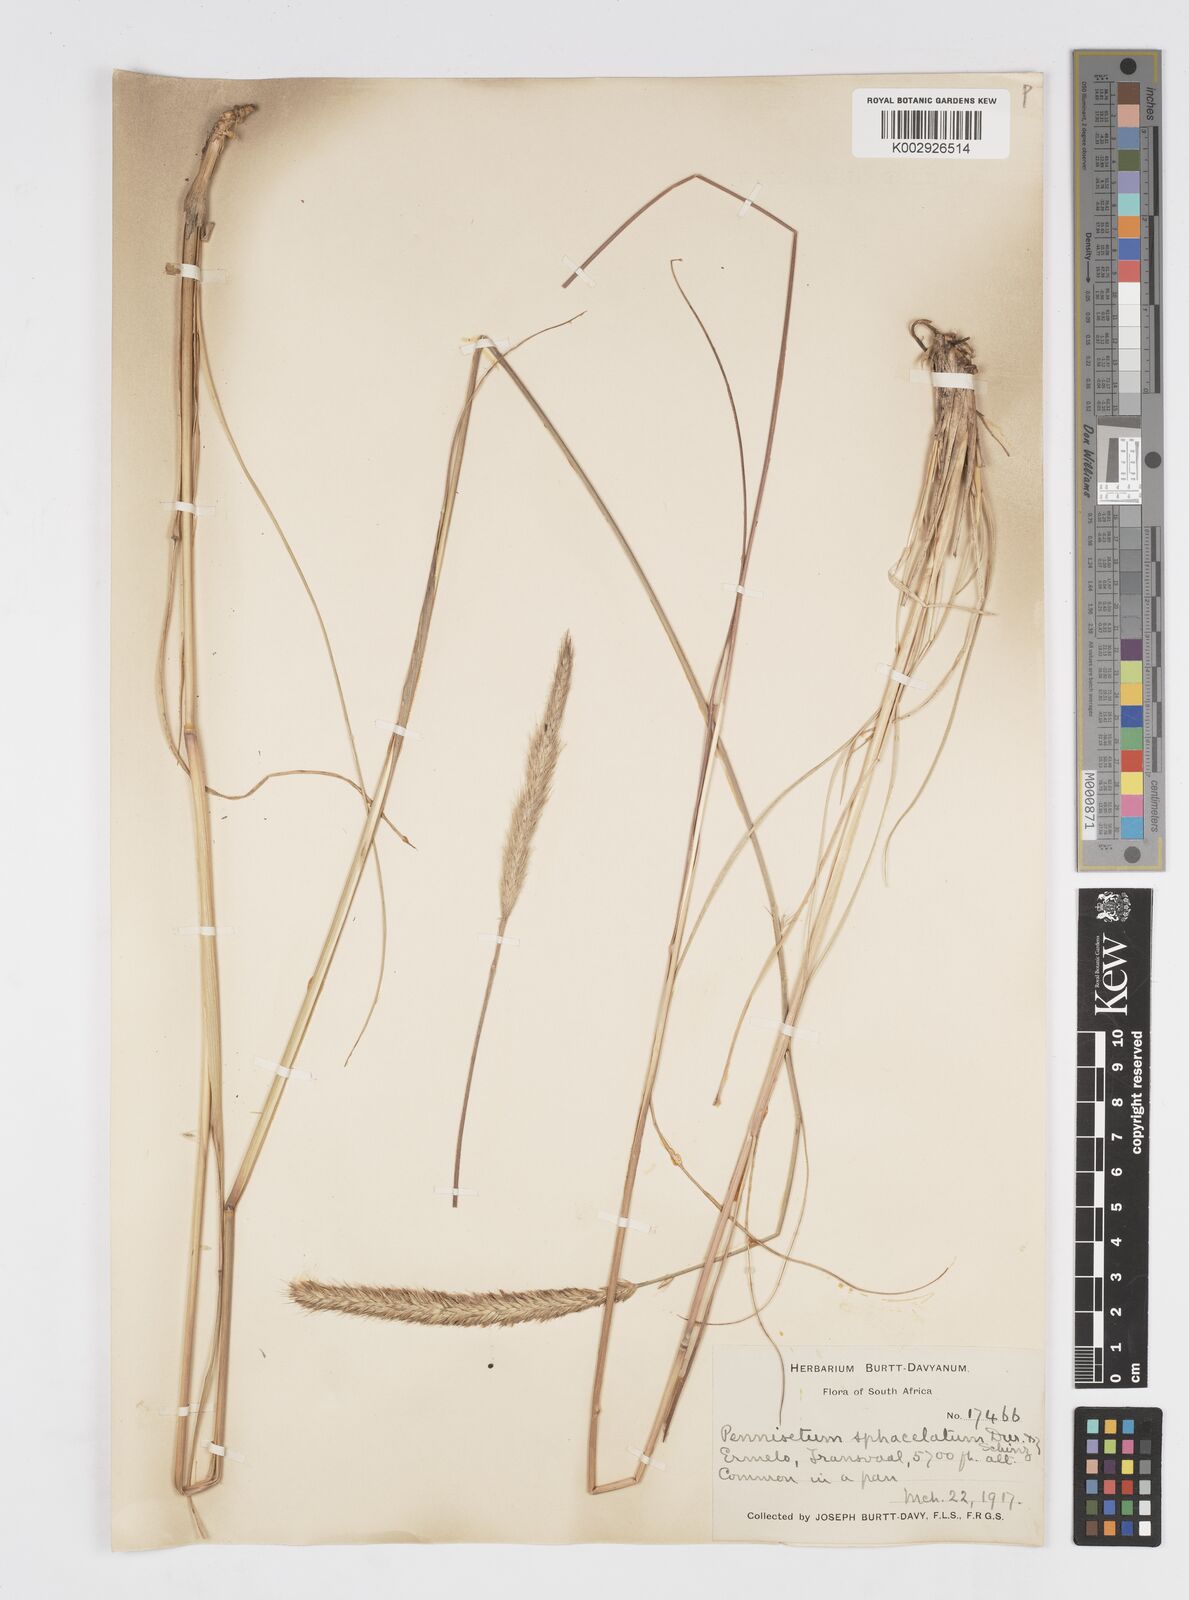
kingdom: Plantae
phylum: Tracheophyta
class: Liliopsida
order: Poales
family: Poaceae
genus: Cenchrus
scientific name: Cenchrus sphacelatus
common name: Bulgras
